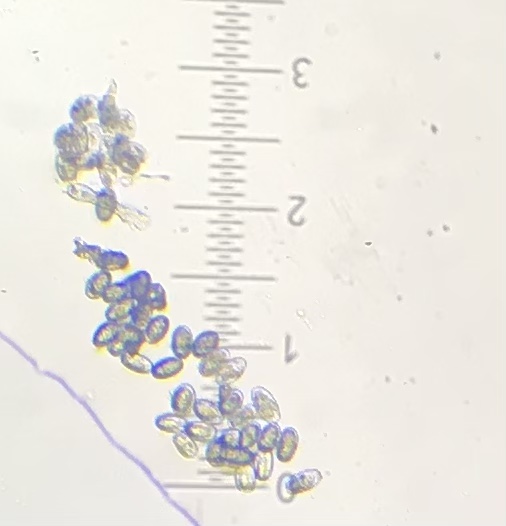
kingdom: Fungi
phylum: Ascomycota
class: Leotiomycetes
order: Helotiales
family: Erysiphaceae
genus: Podosphaera
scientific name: Podosphaera epilobii
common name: dueurt-meldug
